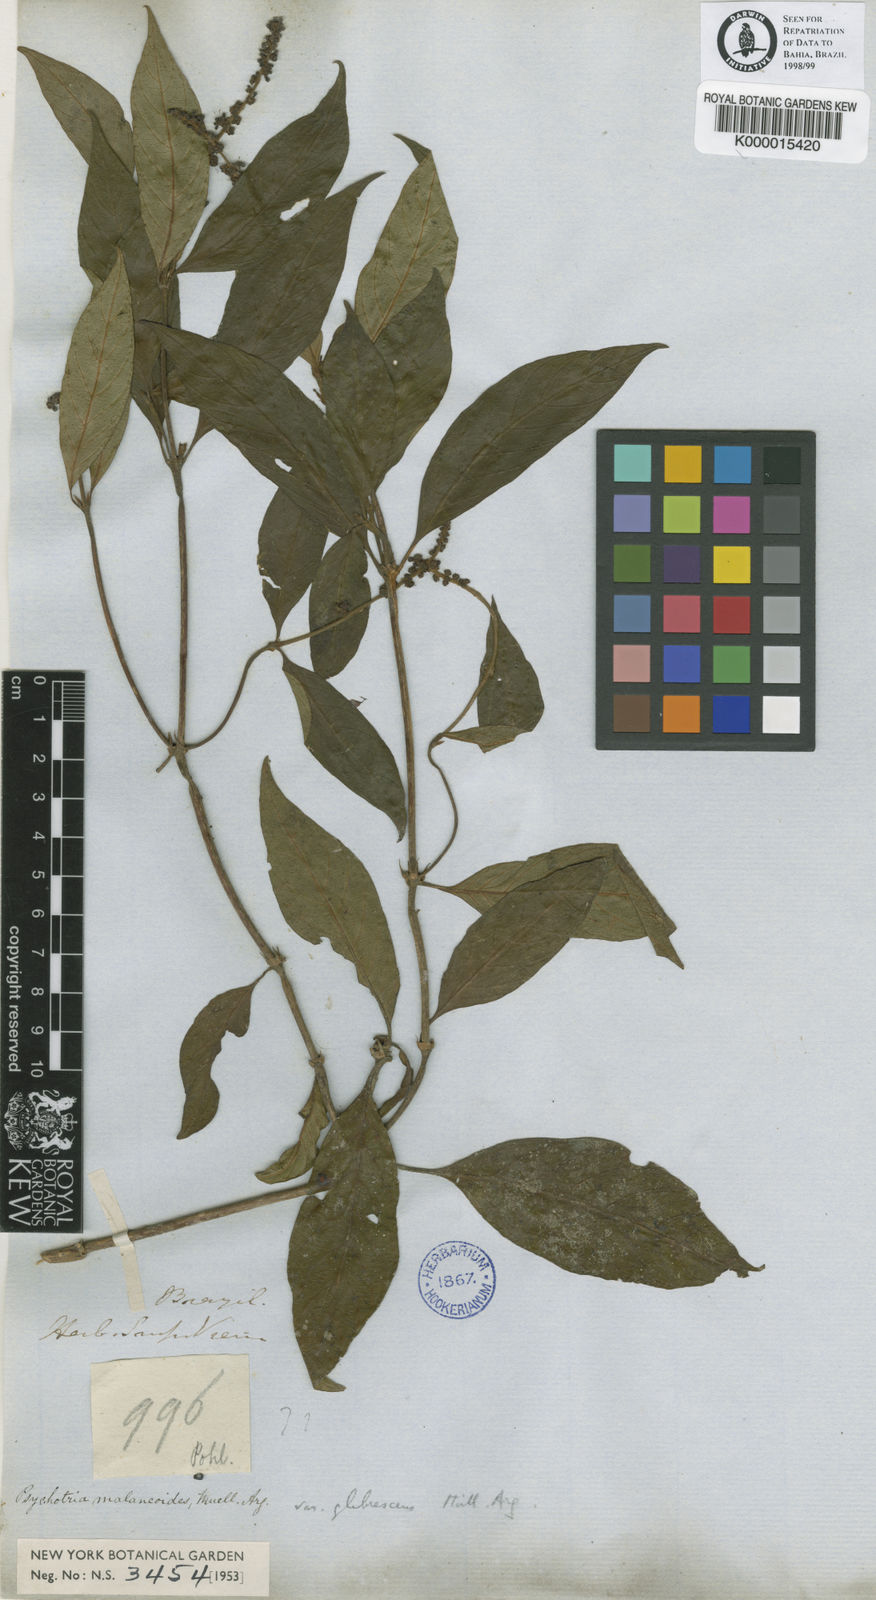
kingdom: Plantae
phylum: Tracheophyta
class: Magnoliopsida
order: Gentianales
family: Rubiaceae
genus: Psychotria
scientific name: Psychotria
